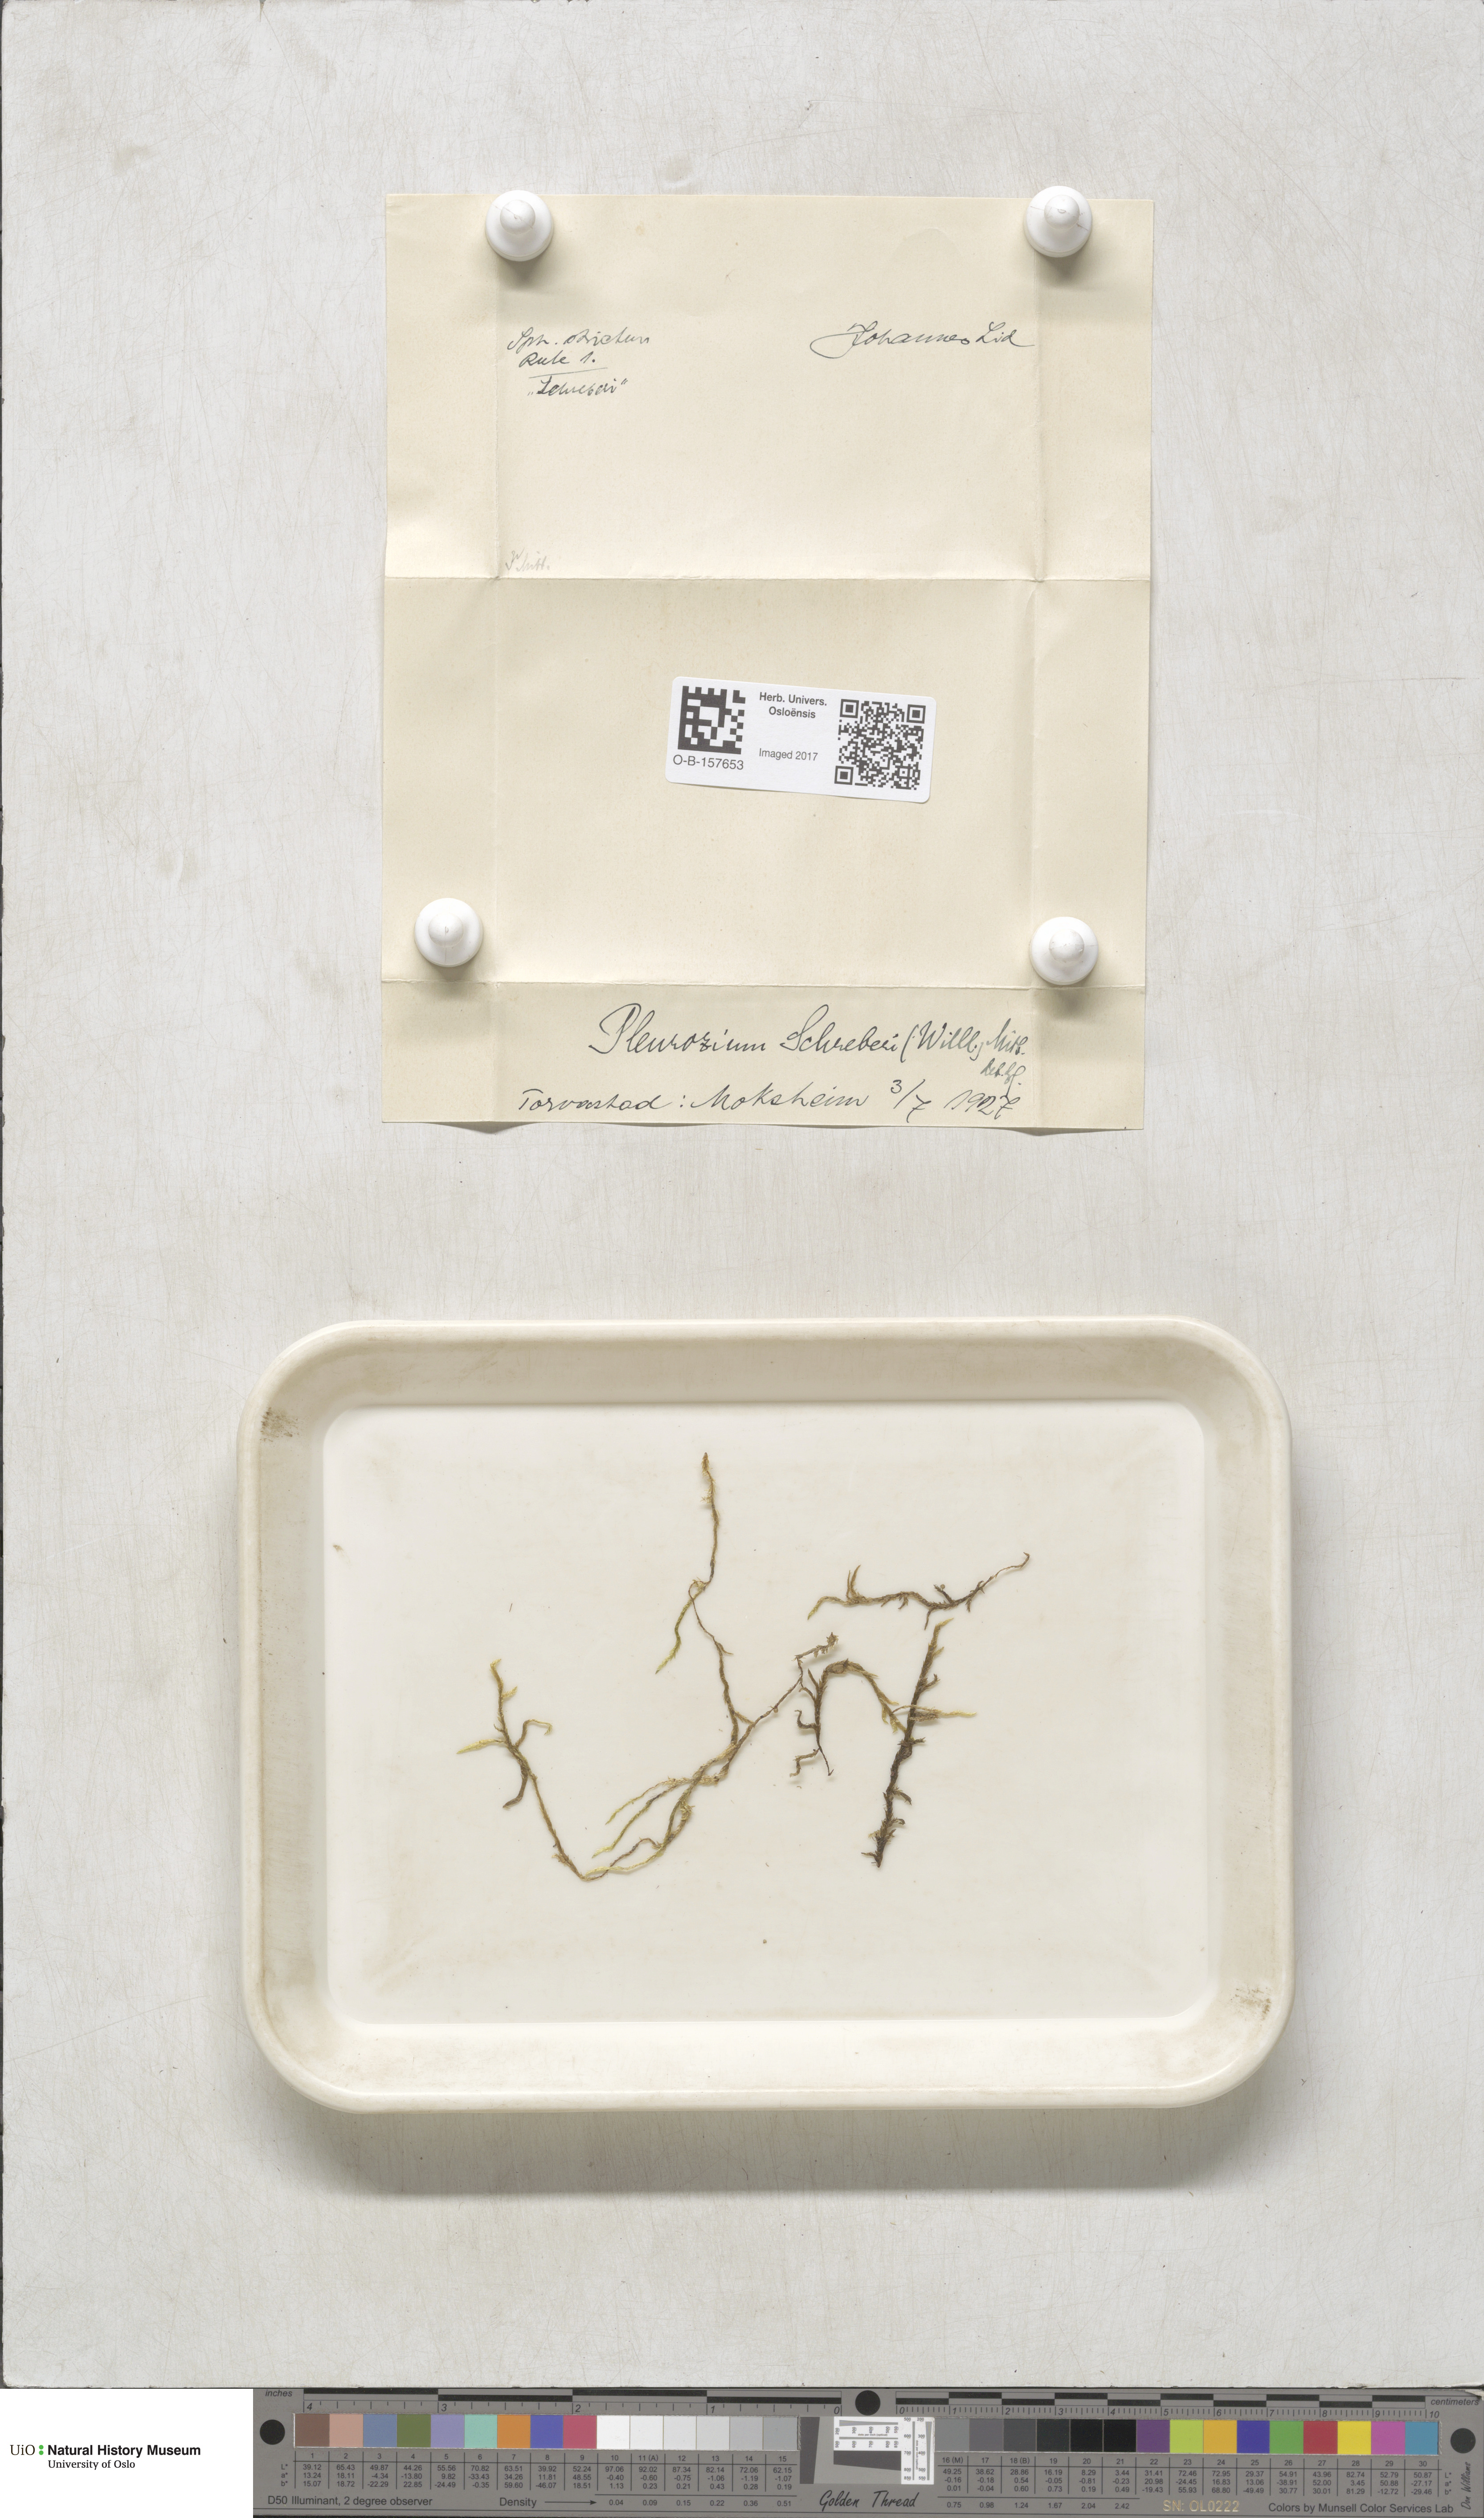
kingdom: Plantae
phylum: Bryophyta
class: Bryopsida
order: Hypnales
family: Hylocomiaceae
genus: Pleurozium
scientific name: Pleurozium schreberi
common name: Red-stemmed feather moss
